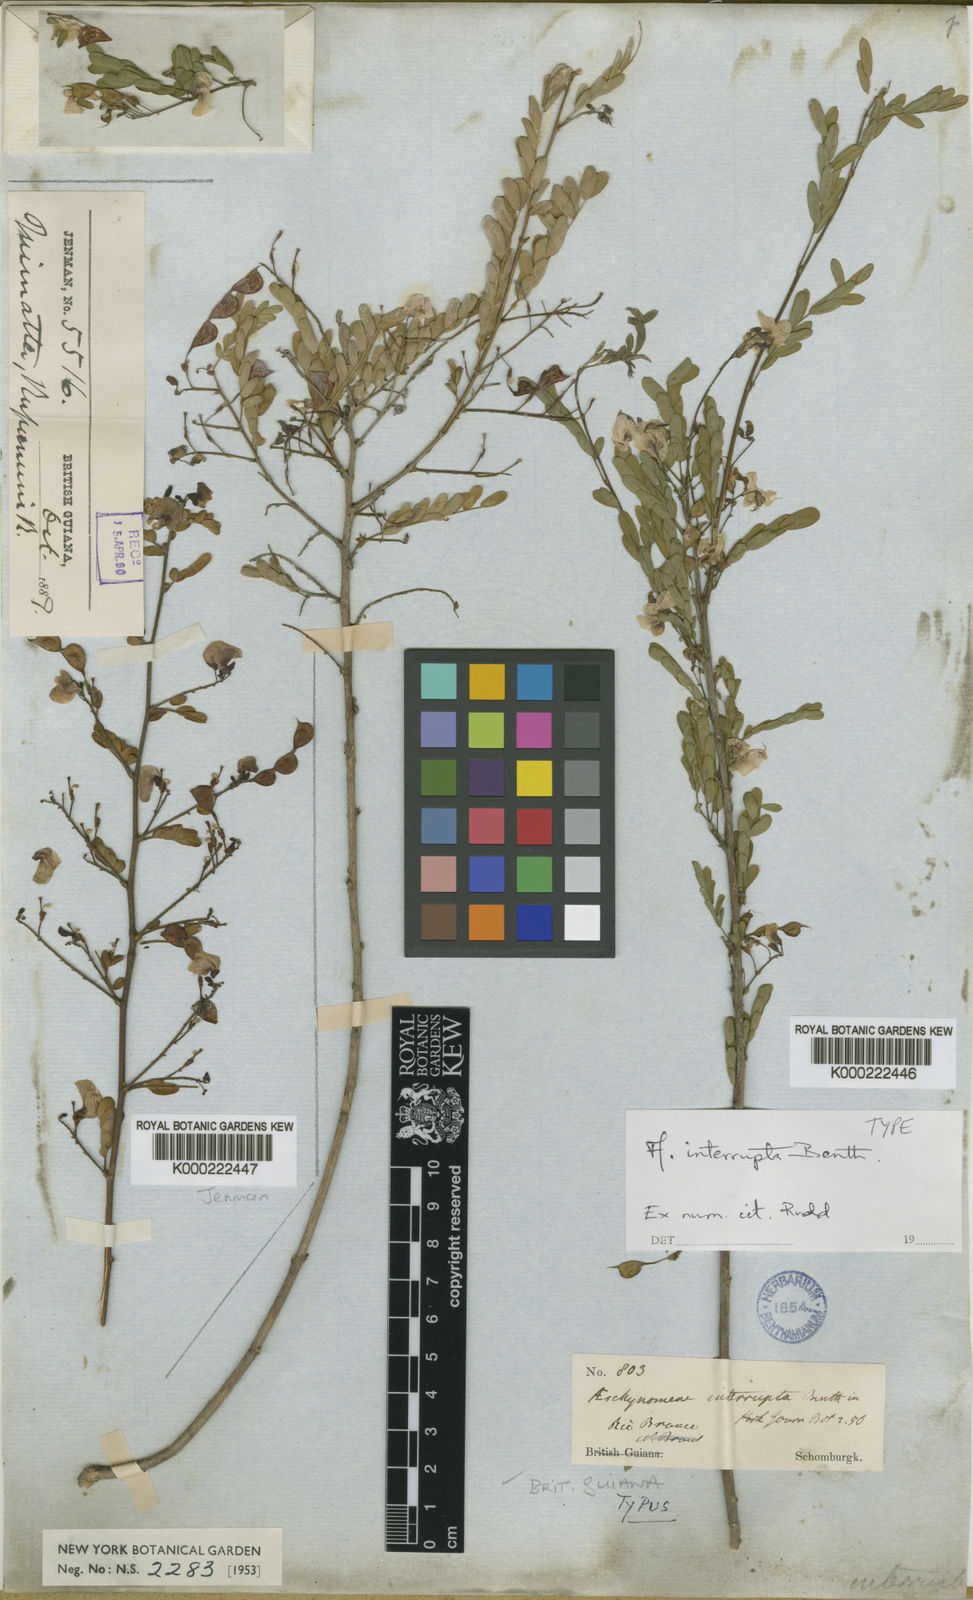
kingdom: Plantae
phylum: Tracheophyta
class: Magnoliopsida
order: Fabales
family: Fabaceae
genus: Ctenodon
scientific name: Ctenodon interruptus
